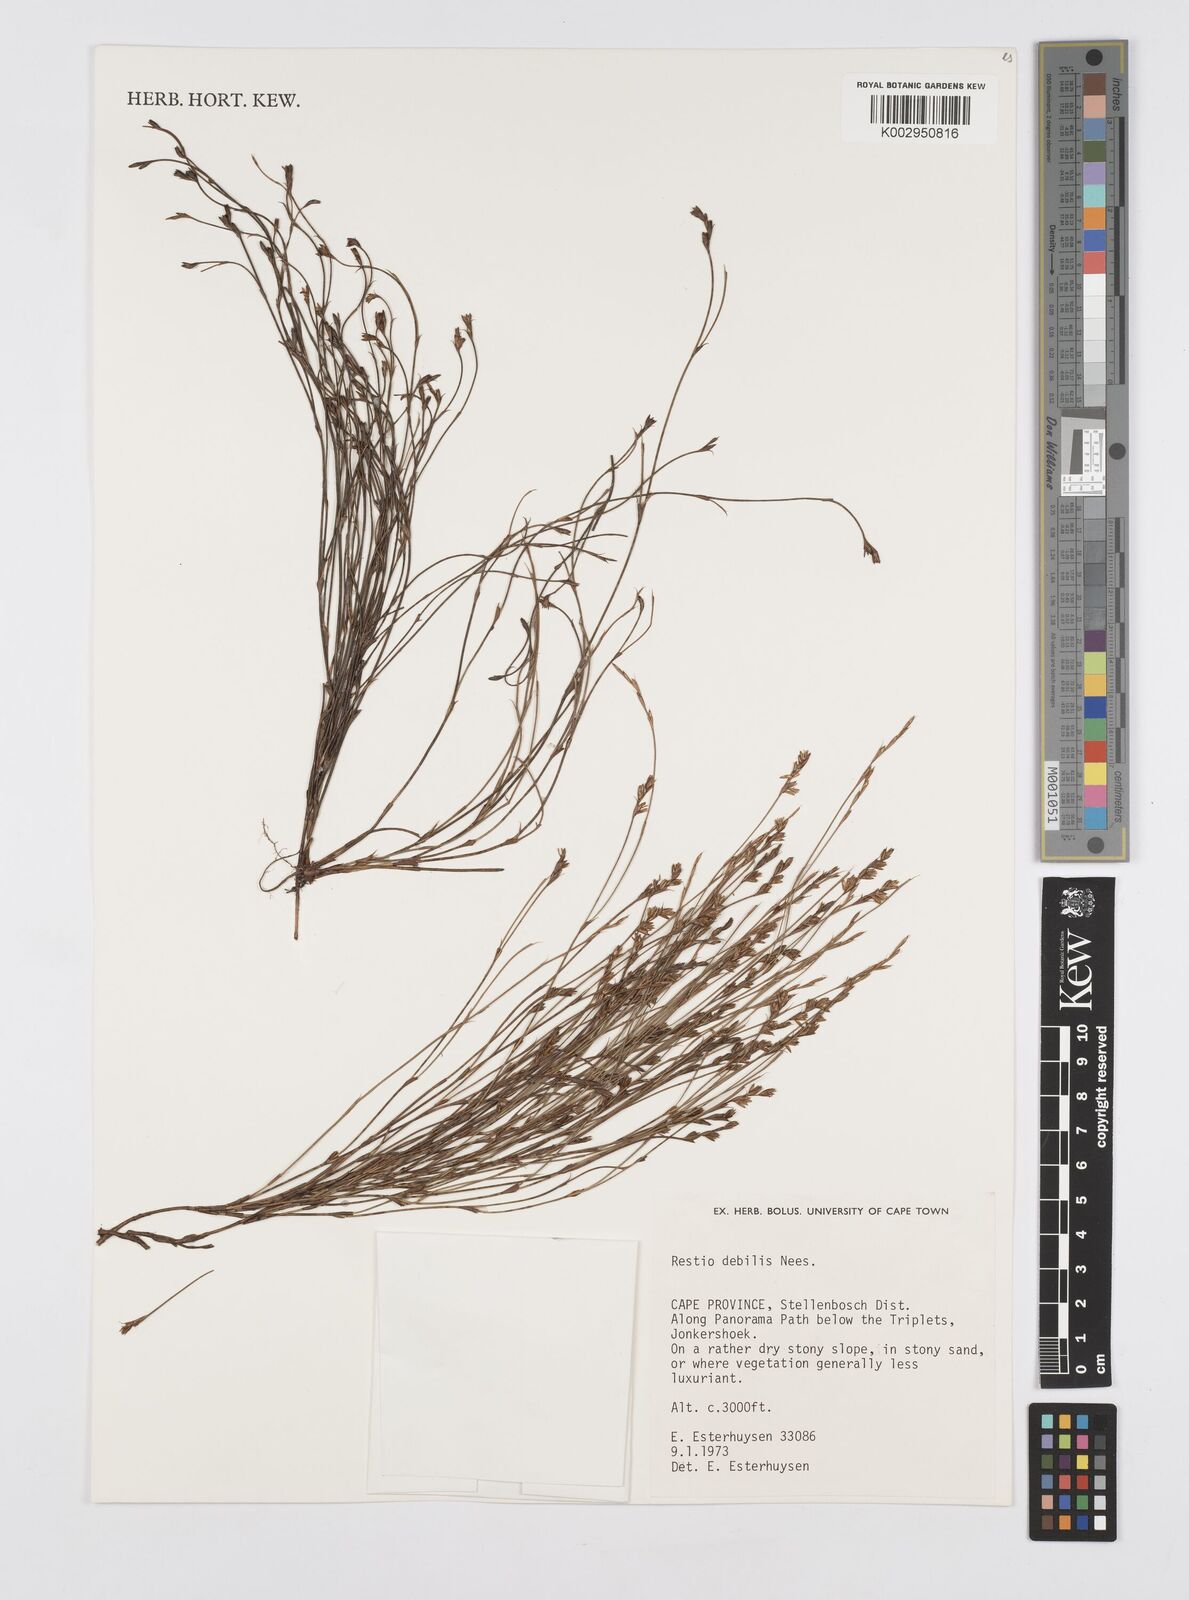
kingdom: Plantae
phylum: Tracheophyta
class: Liliopsida
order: Poales
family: Restionaceae
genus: Restio
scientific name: Restio debilis
